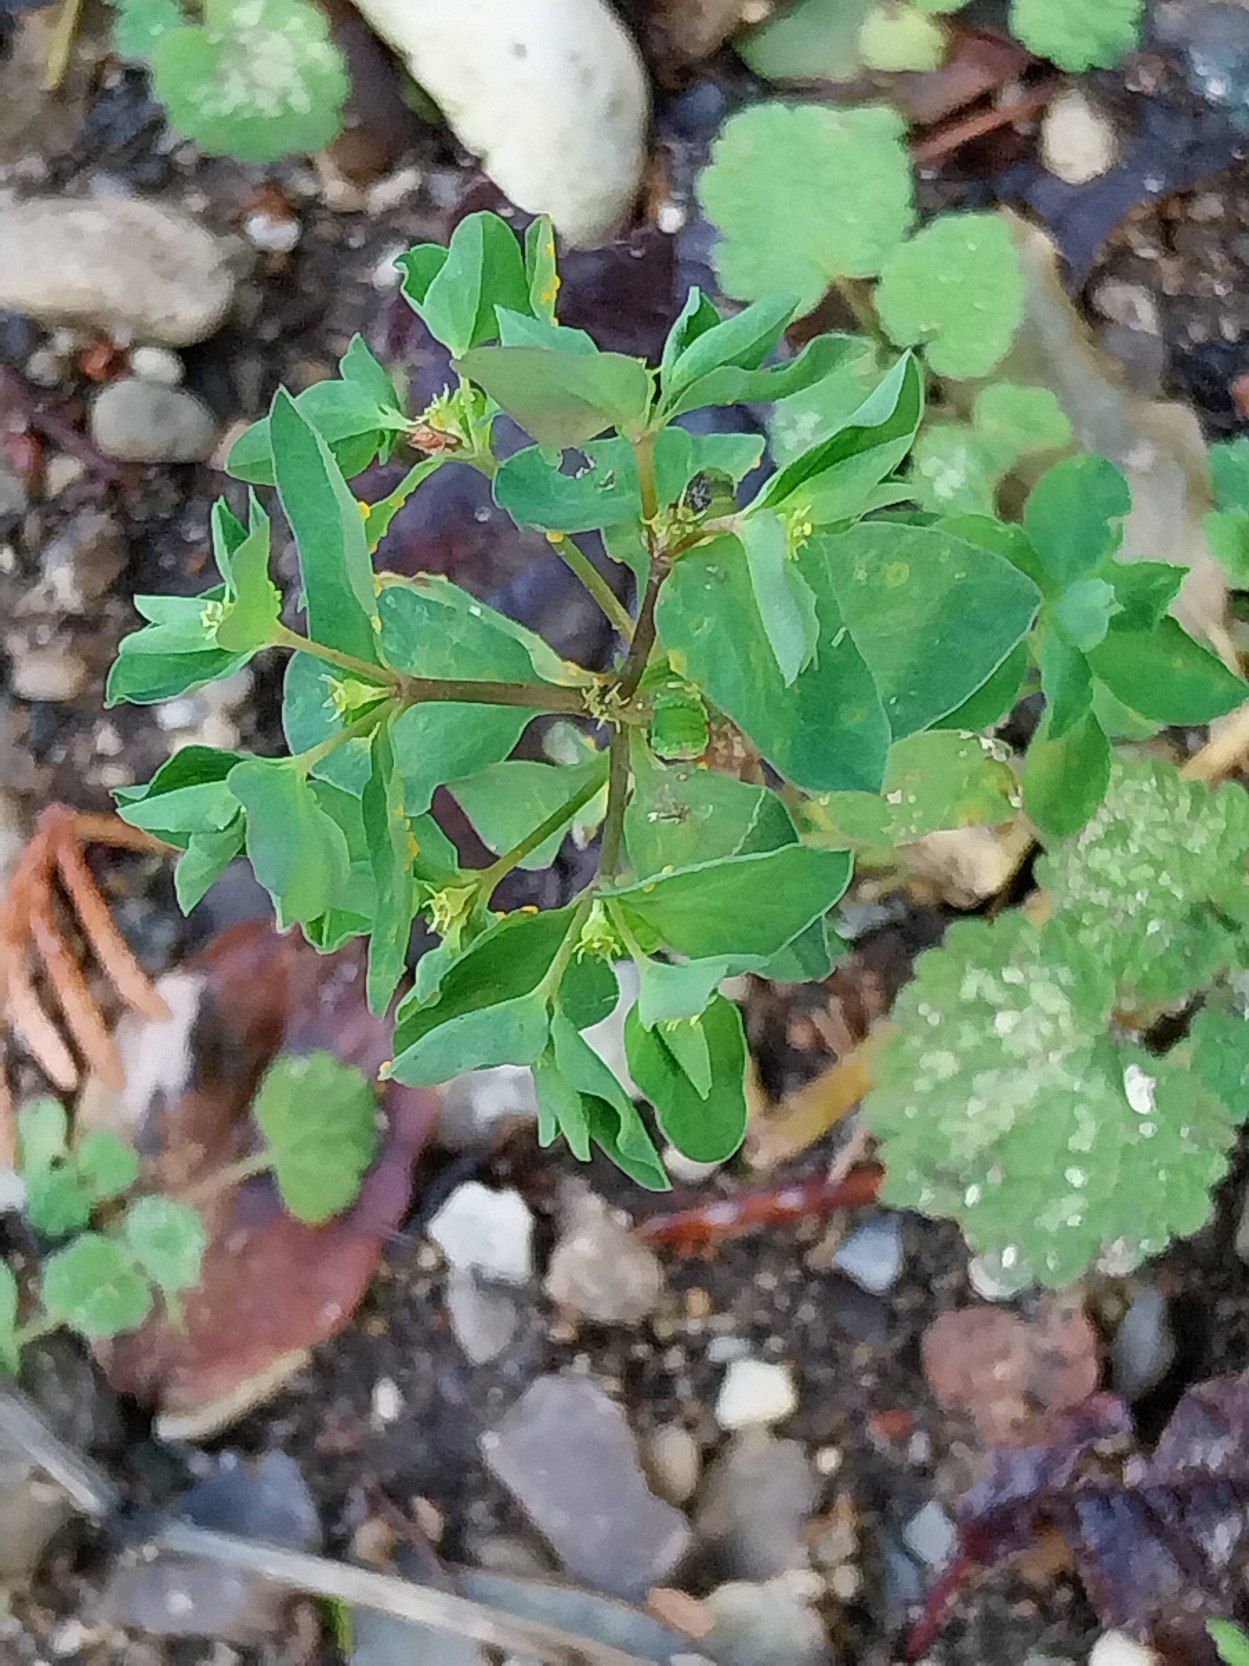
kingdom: Plantae
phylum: Tracheophyta
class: Magnoliopsida
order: Malpighiales
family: Euphorbiaceae
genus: Euphorbia
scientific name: Euphorbia peplus
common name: Gaffel-vortemælk
